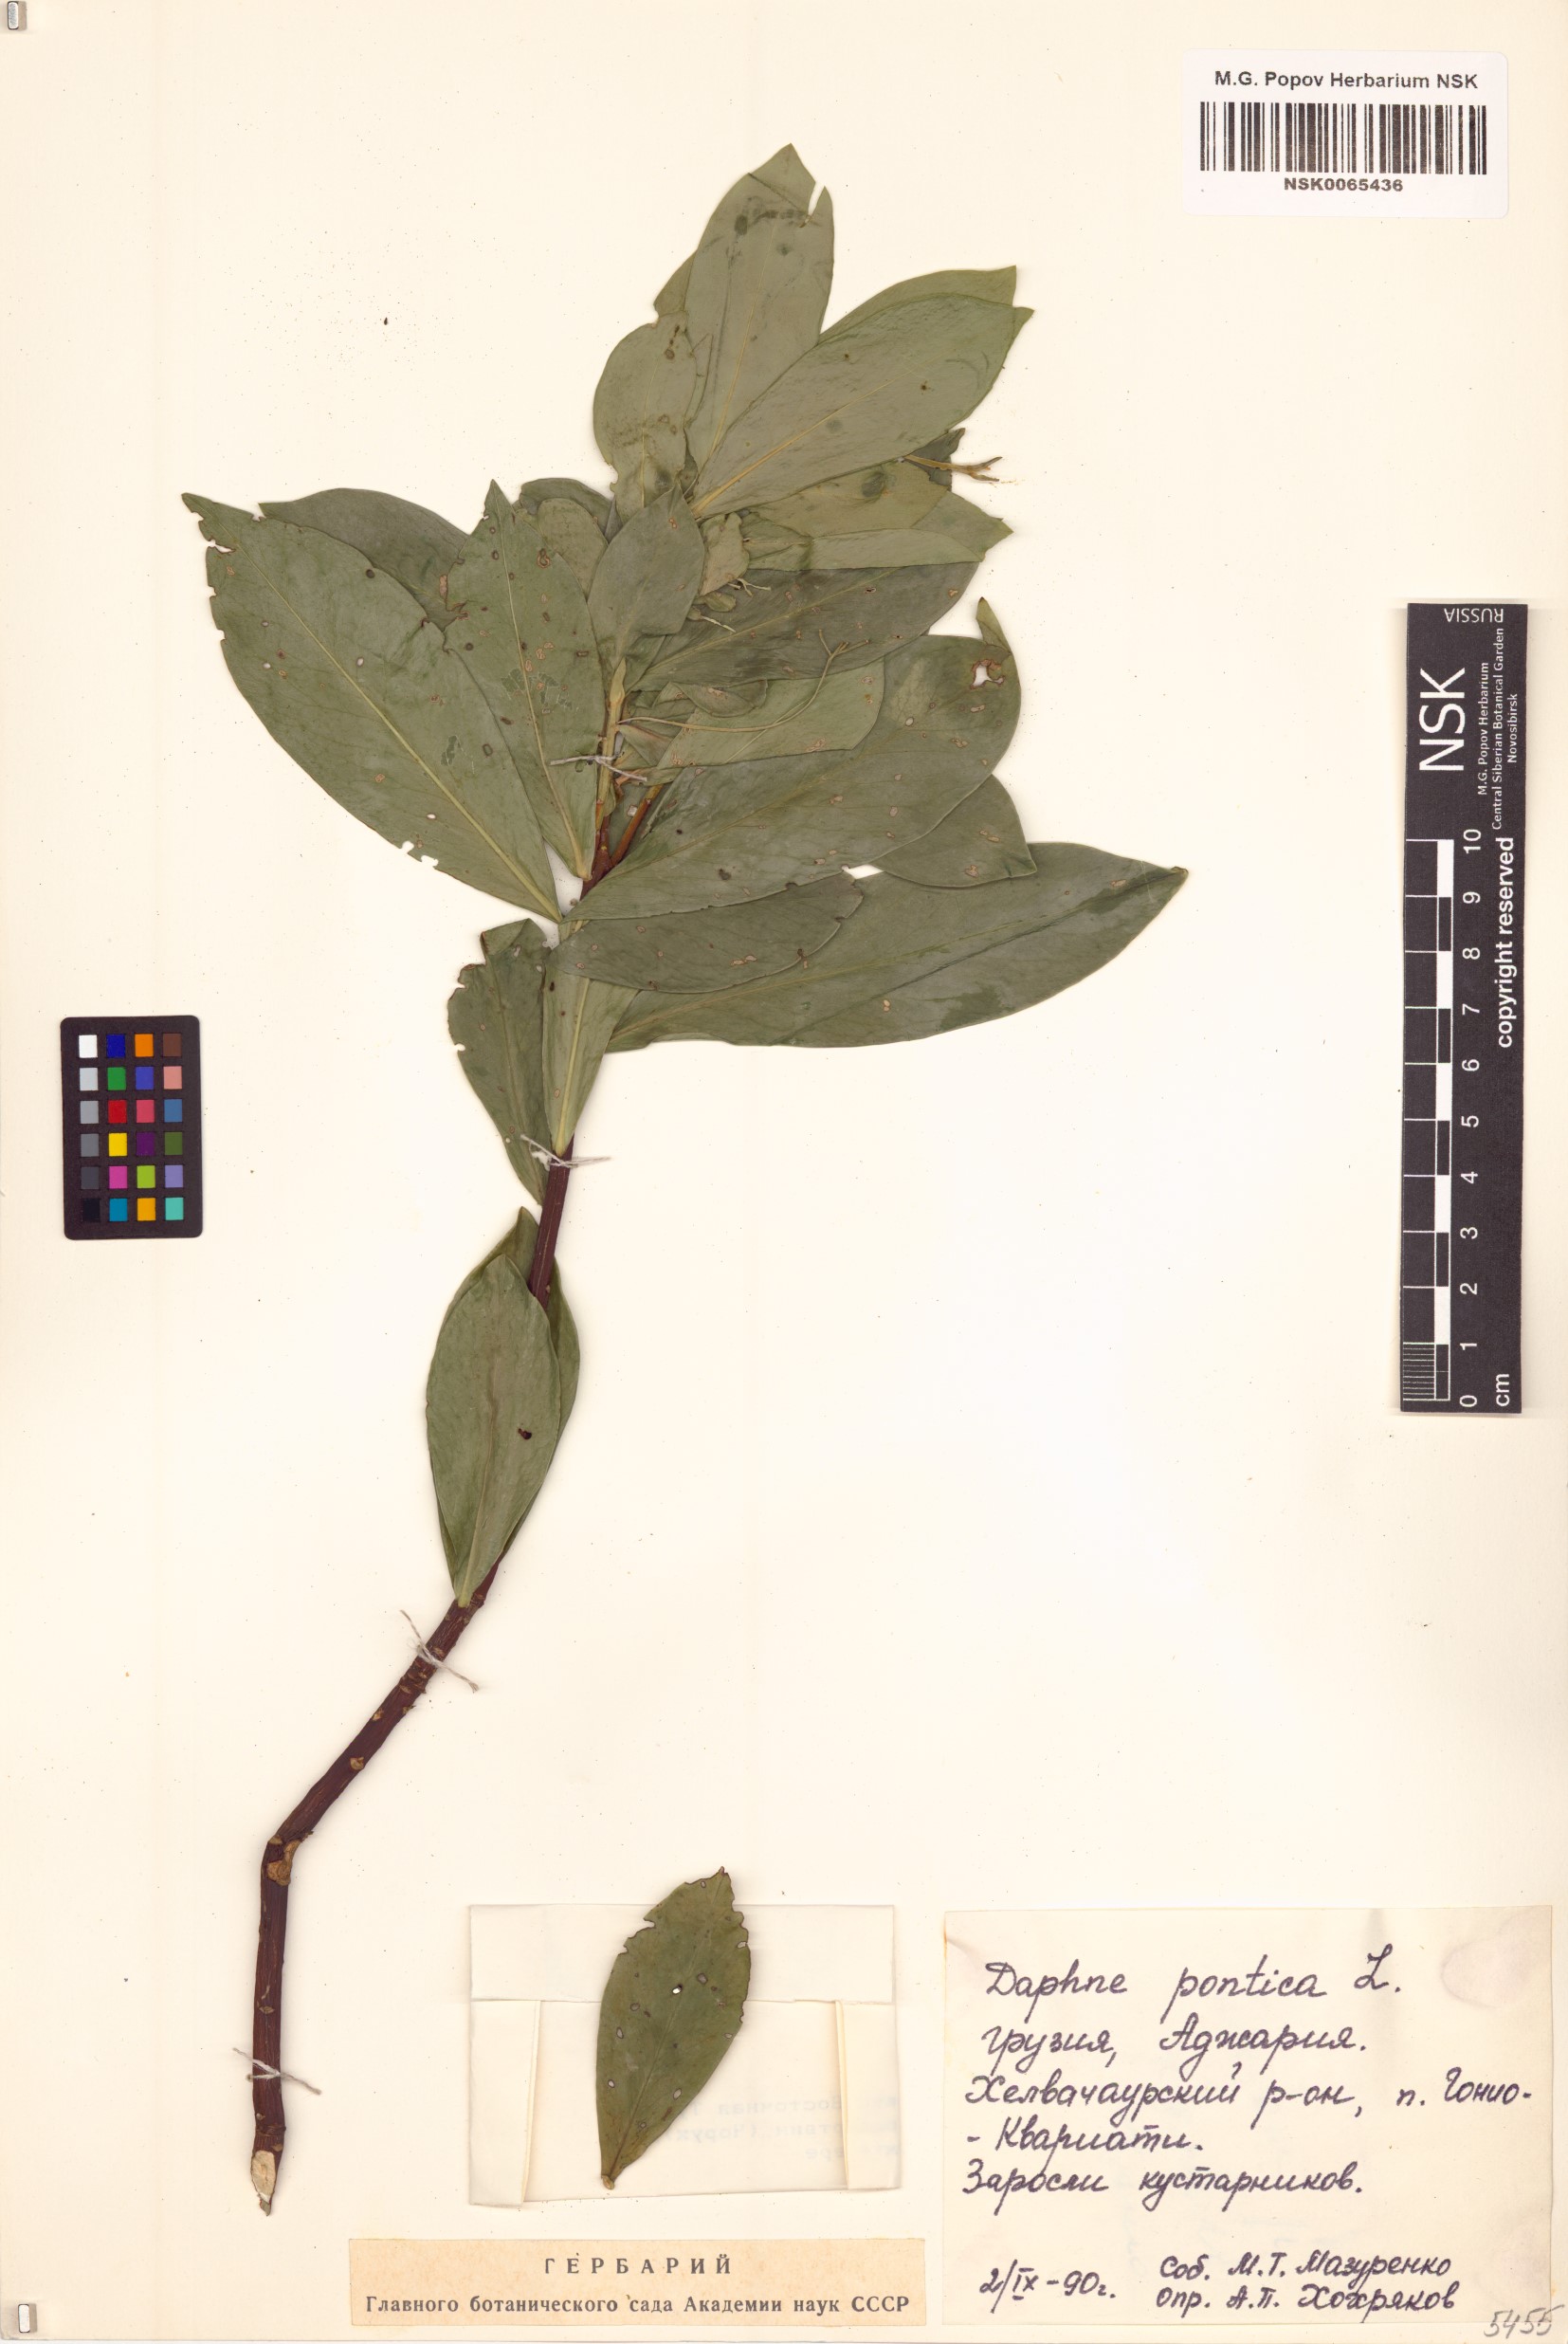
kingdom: Plantae
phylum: Tracheophyta
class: Magnoliopsida
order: Malvales
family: Thymelaeaceae
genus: Daphne
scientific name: Daphne pontica
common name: Twin-flower daphne
